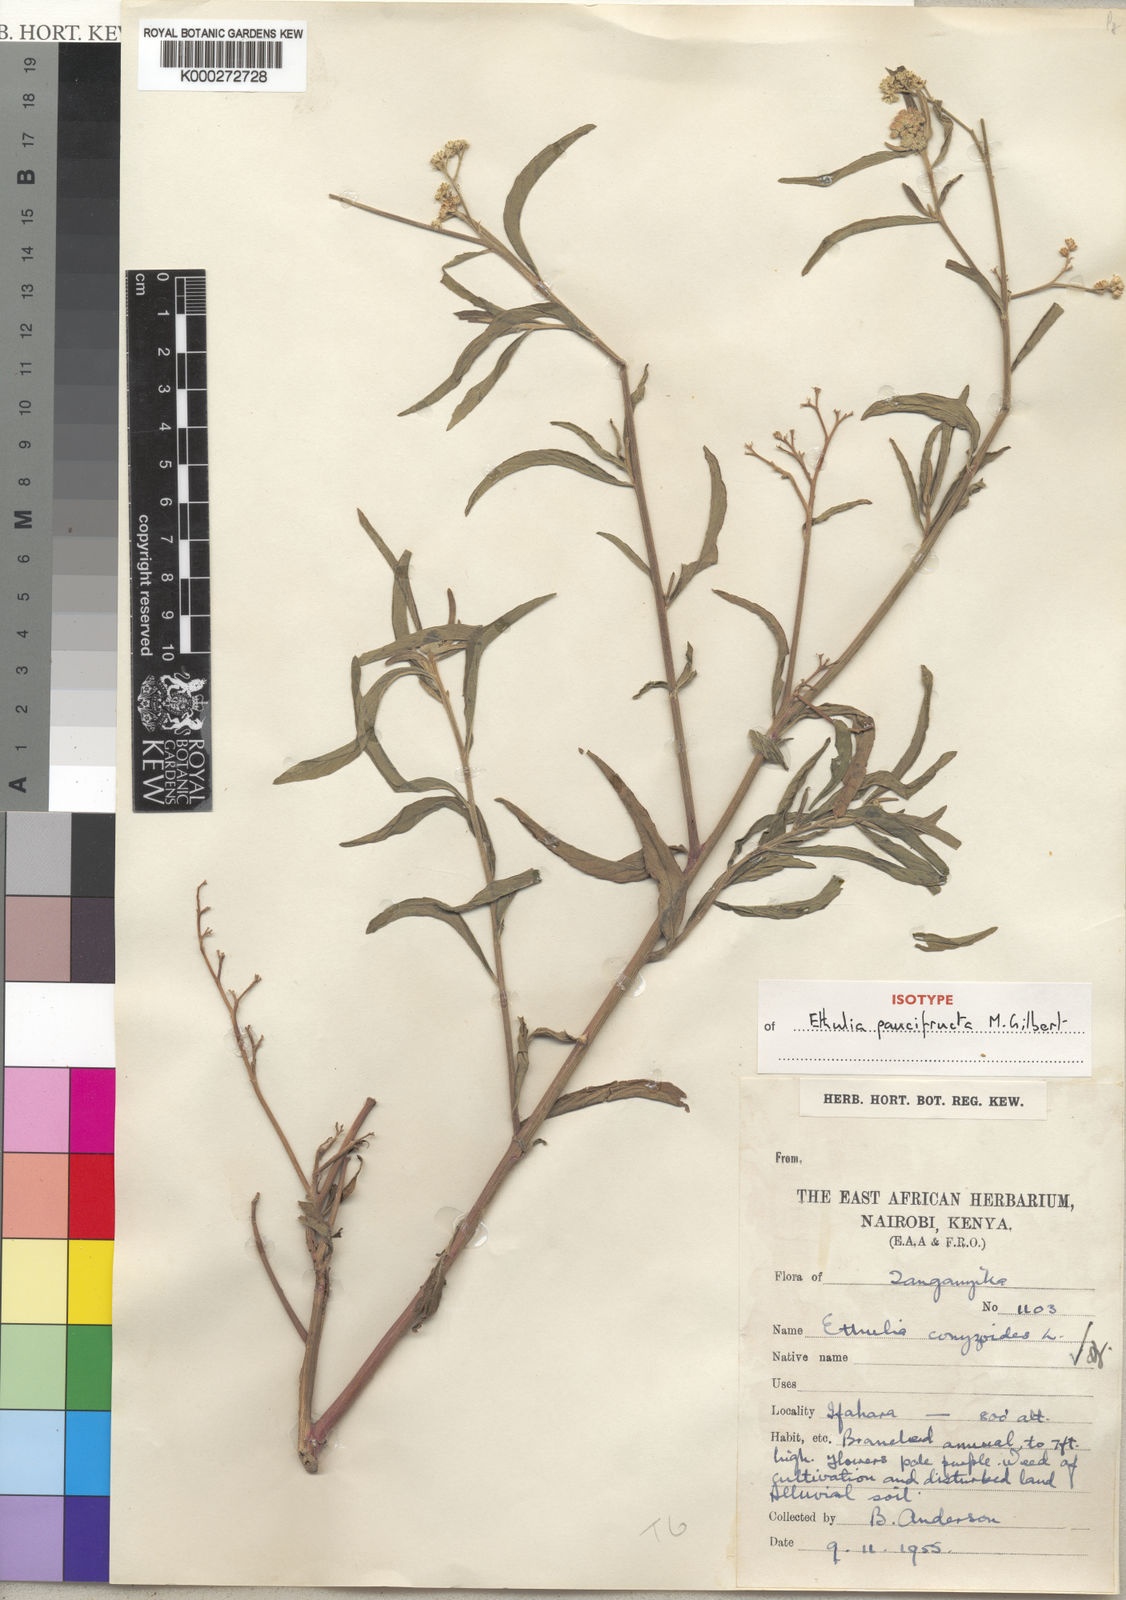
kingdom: Plantae
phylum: Tracheophyta
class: Magnoliopsida
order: Asterales
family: Asteraceae
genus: Ethulia
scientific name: Ethulia paucifructa
